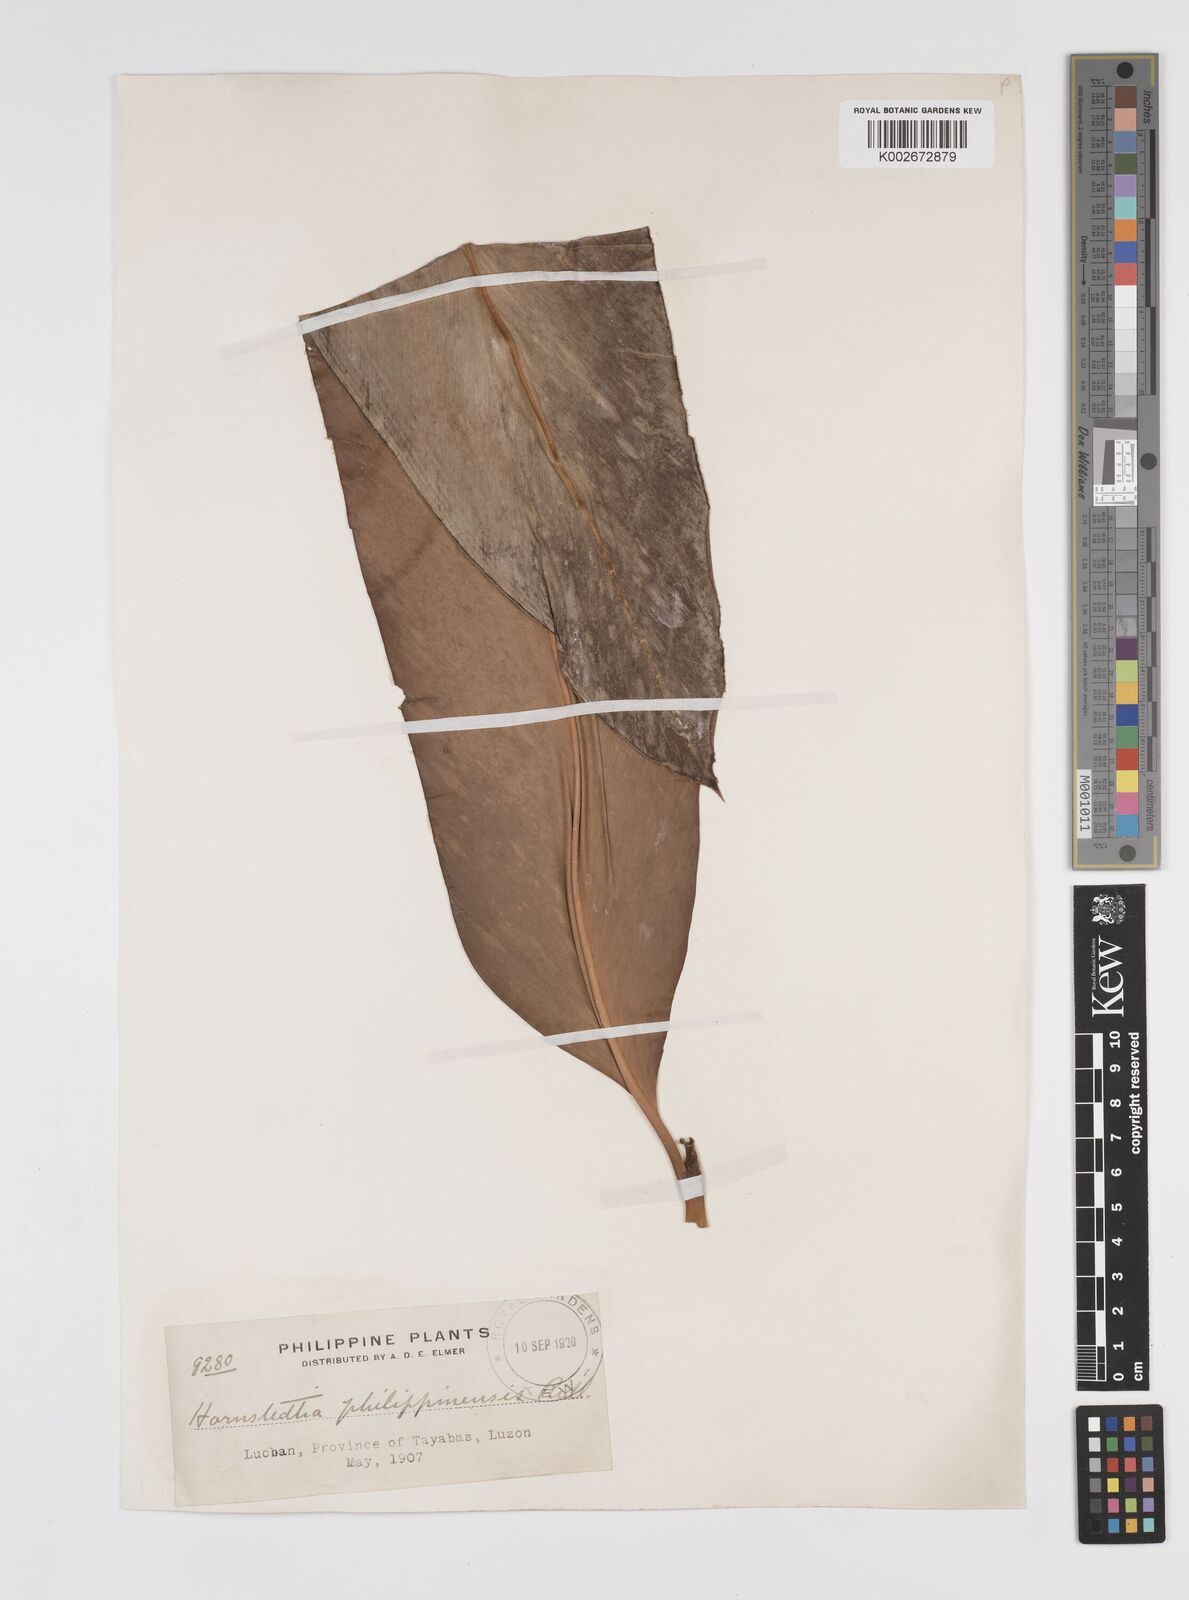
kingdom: Plantae
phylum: Tracheophyta
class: Liliopsida
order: Zingiberales
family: Zingiberaceae
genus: Etlingera
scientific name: Etlingera philippinensis
